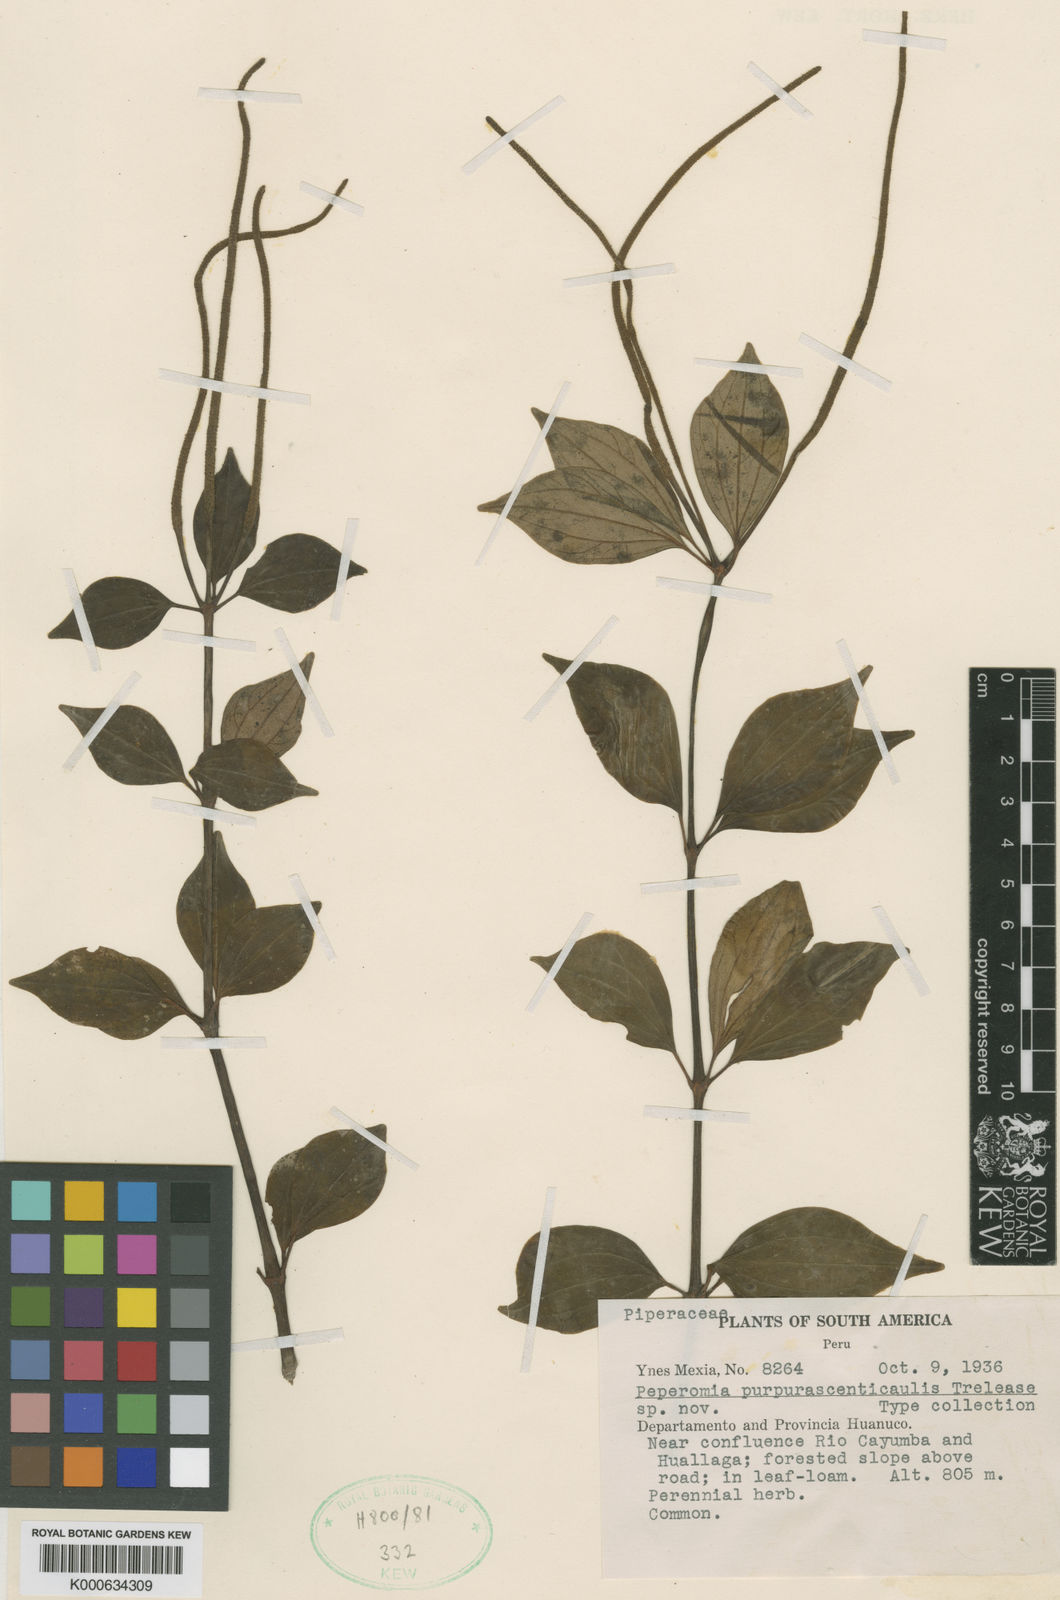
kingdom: Plantae
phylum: Tracheophyta
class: Magnoliopsida
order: Piperales
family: Piperaceae
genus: Peperomia
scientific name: Peperomia
